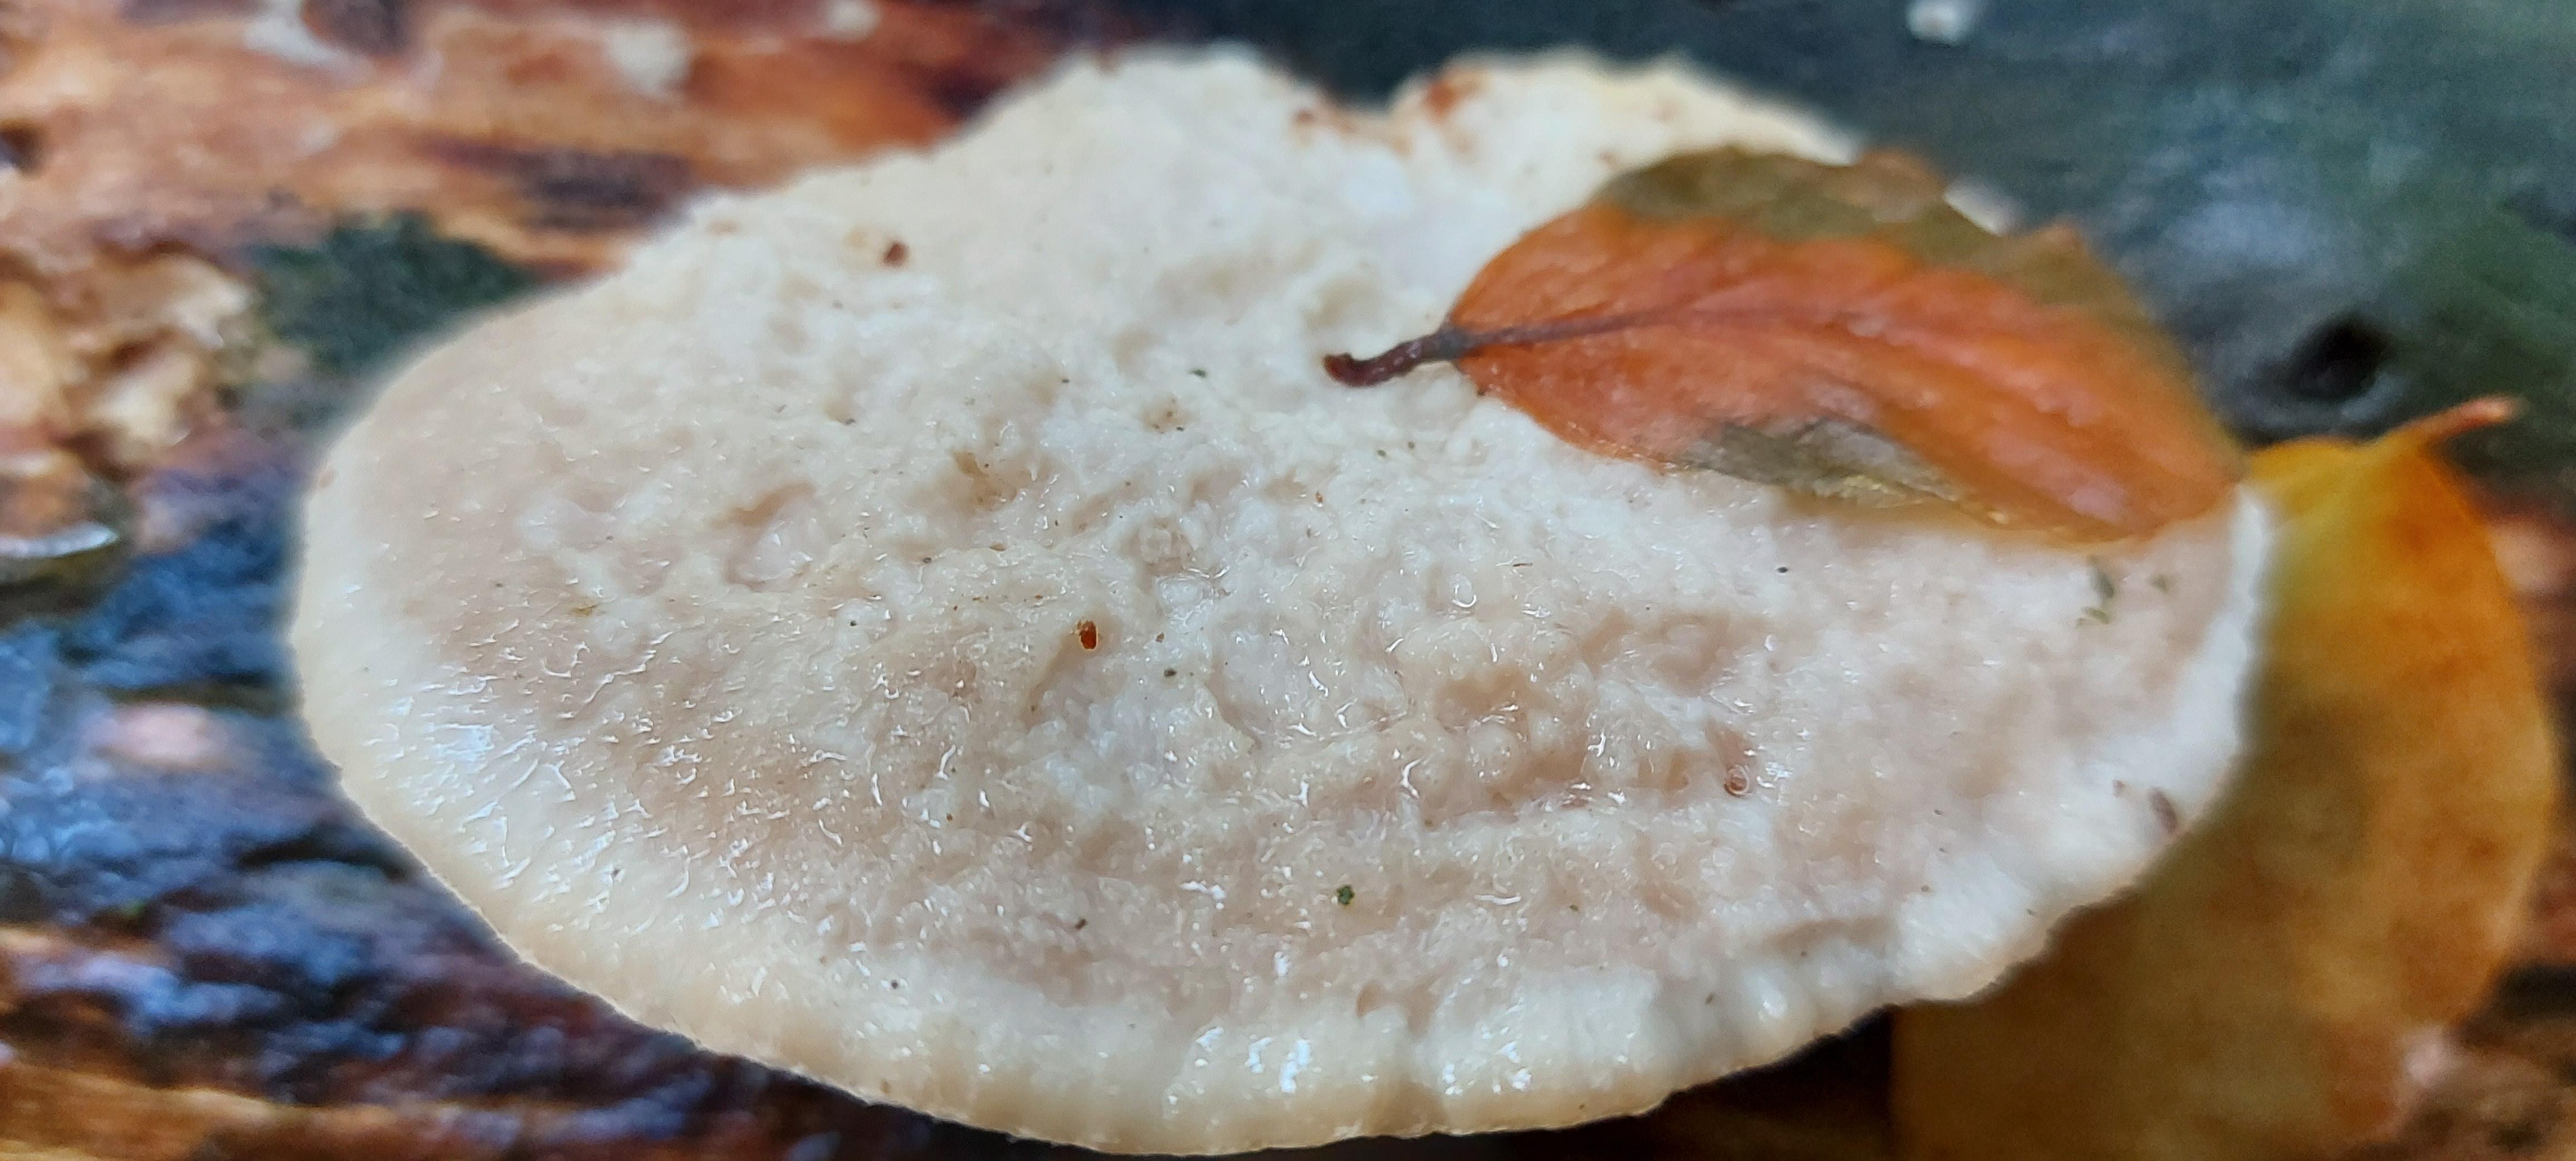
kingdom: Fungi
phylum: Basidiomycota
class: Agaricomycetes
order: Polyporales
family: Meruliaceae
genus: Phlebia
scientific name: Phlebia tremellosa
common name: bævrende åresvamp
